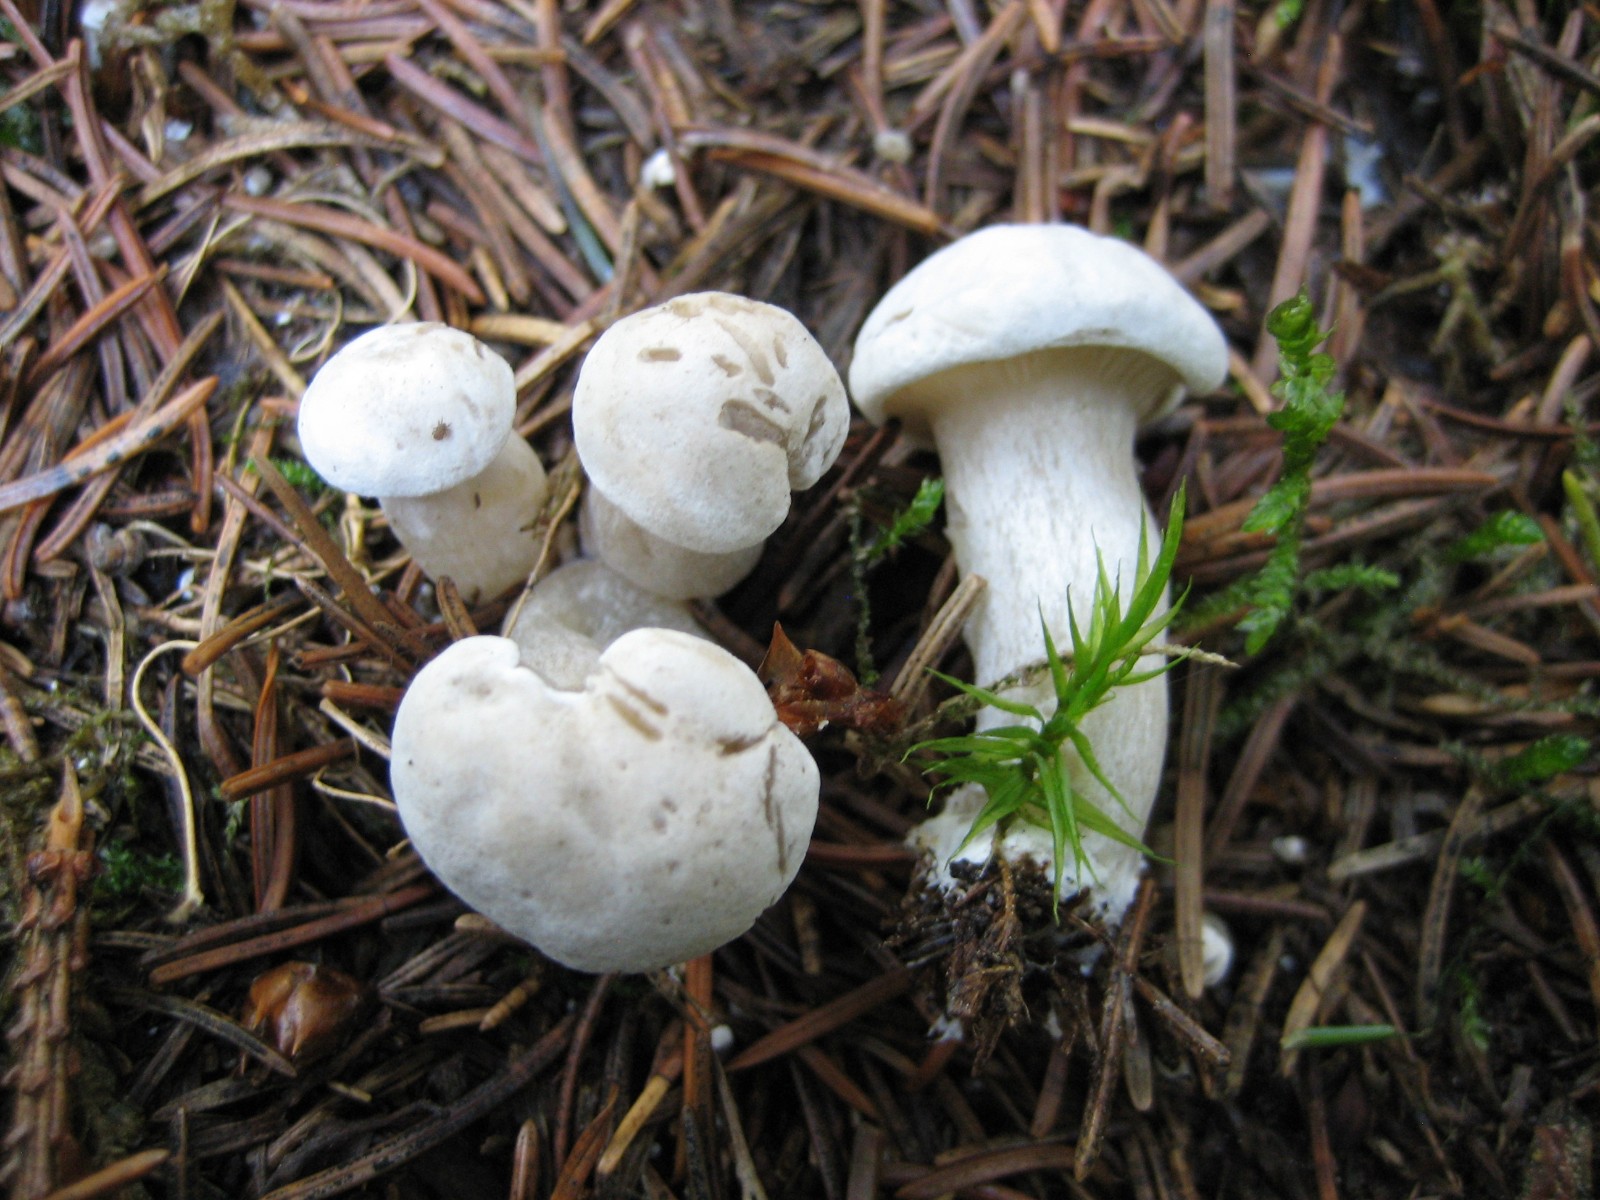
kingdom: Fungi
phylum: Basidiomycota
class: Agaricomycetes
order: Agaricales
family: Entolomataceae
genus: Clitopilus
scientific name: Clitopilus prunulus
